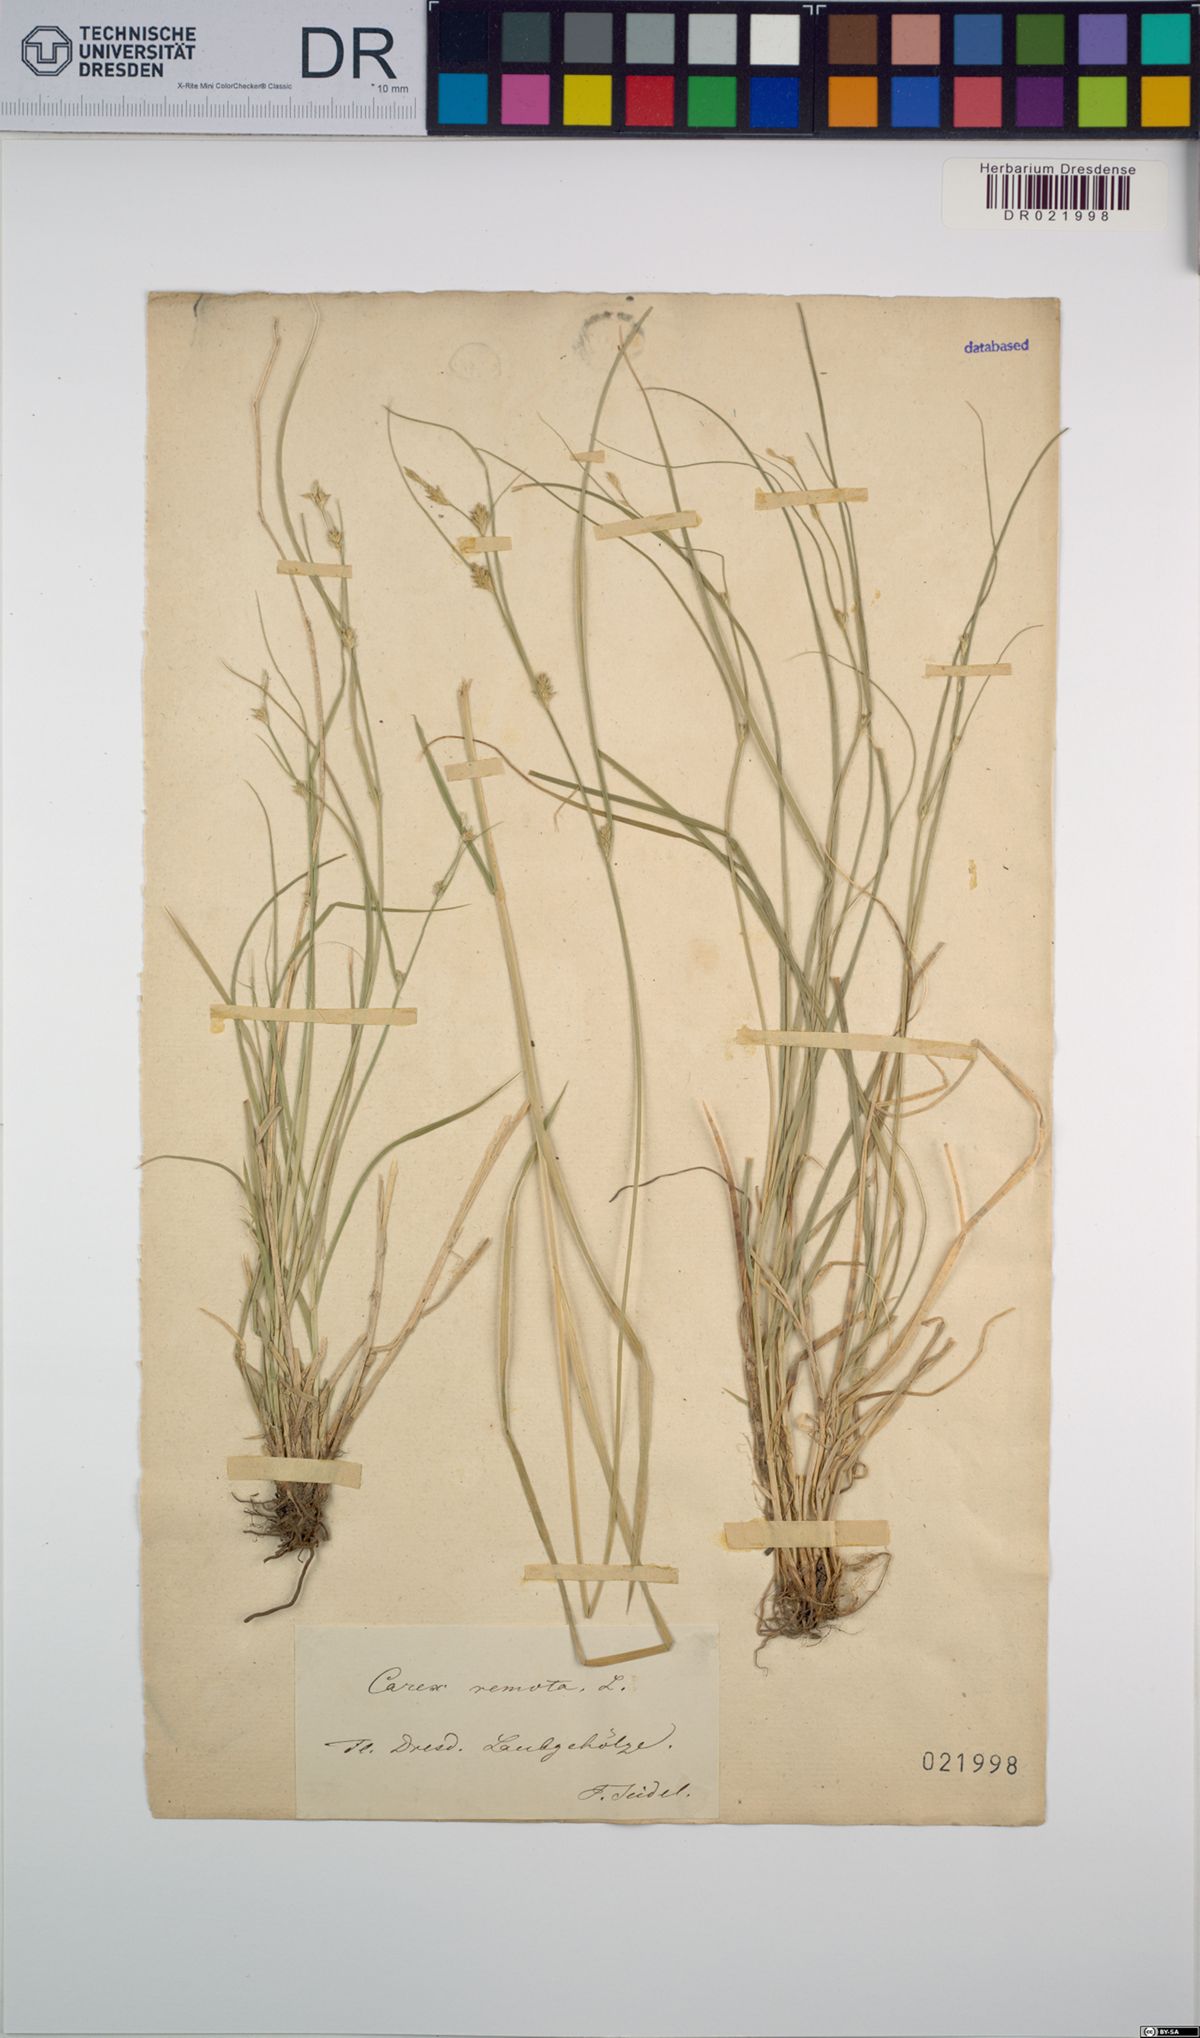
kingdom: Plantae
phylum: Tracheophyta
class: Liliopsida
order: Poales
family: Cyperaceae
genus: Carex
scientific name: Carex remota
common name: Remote sedge
